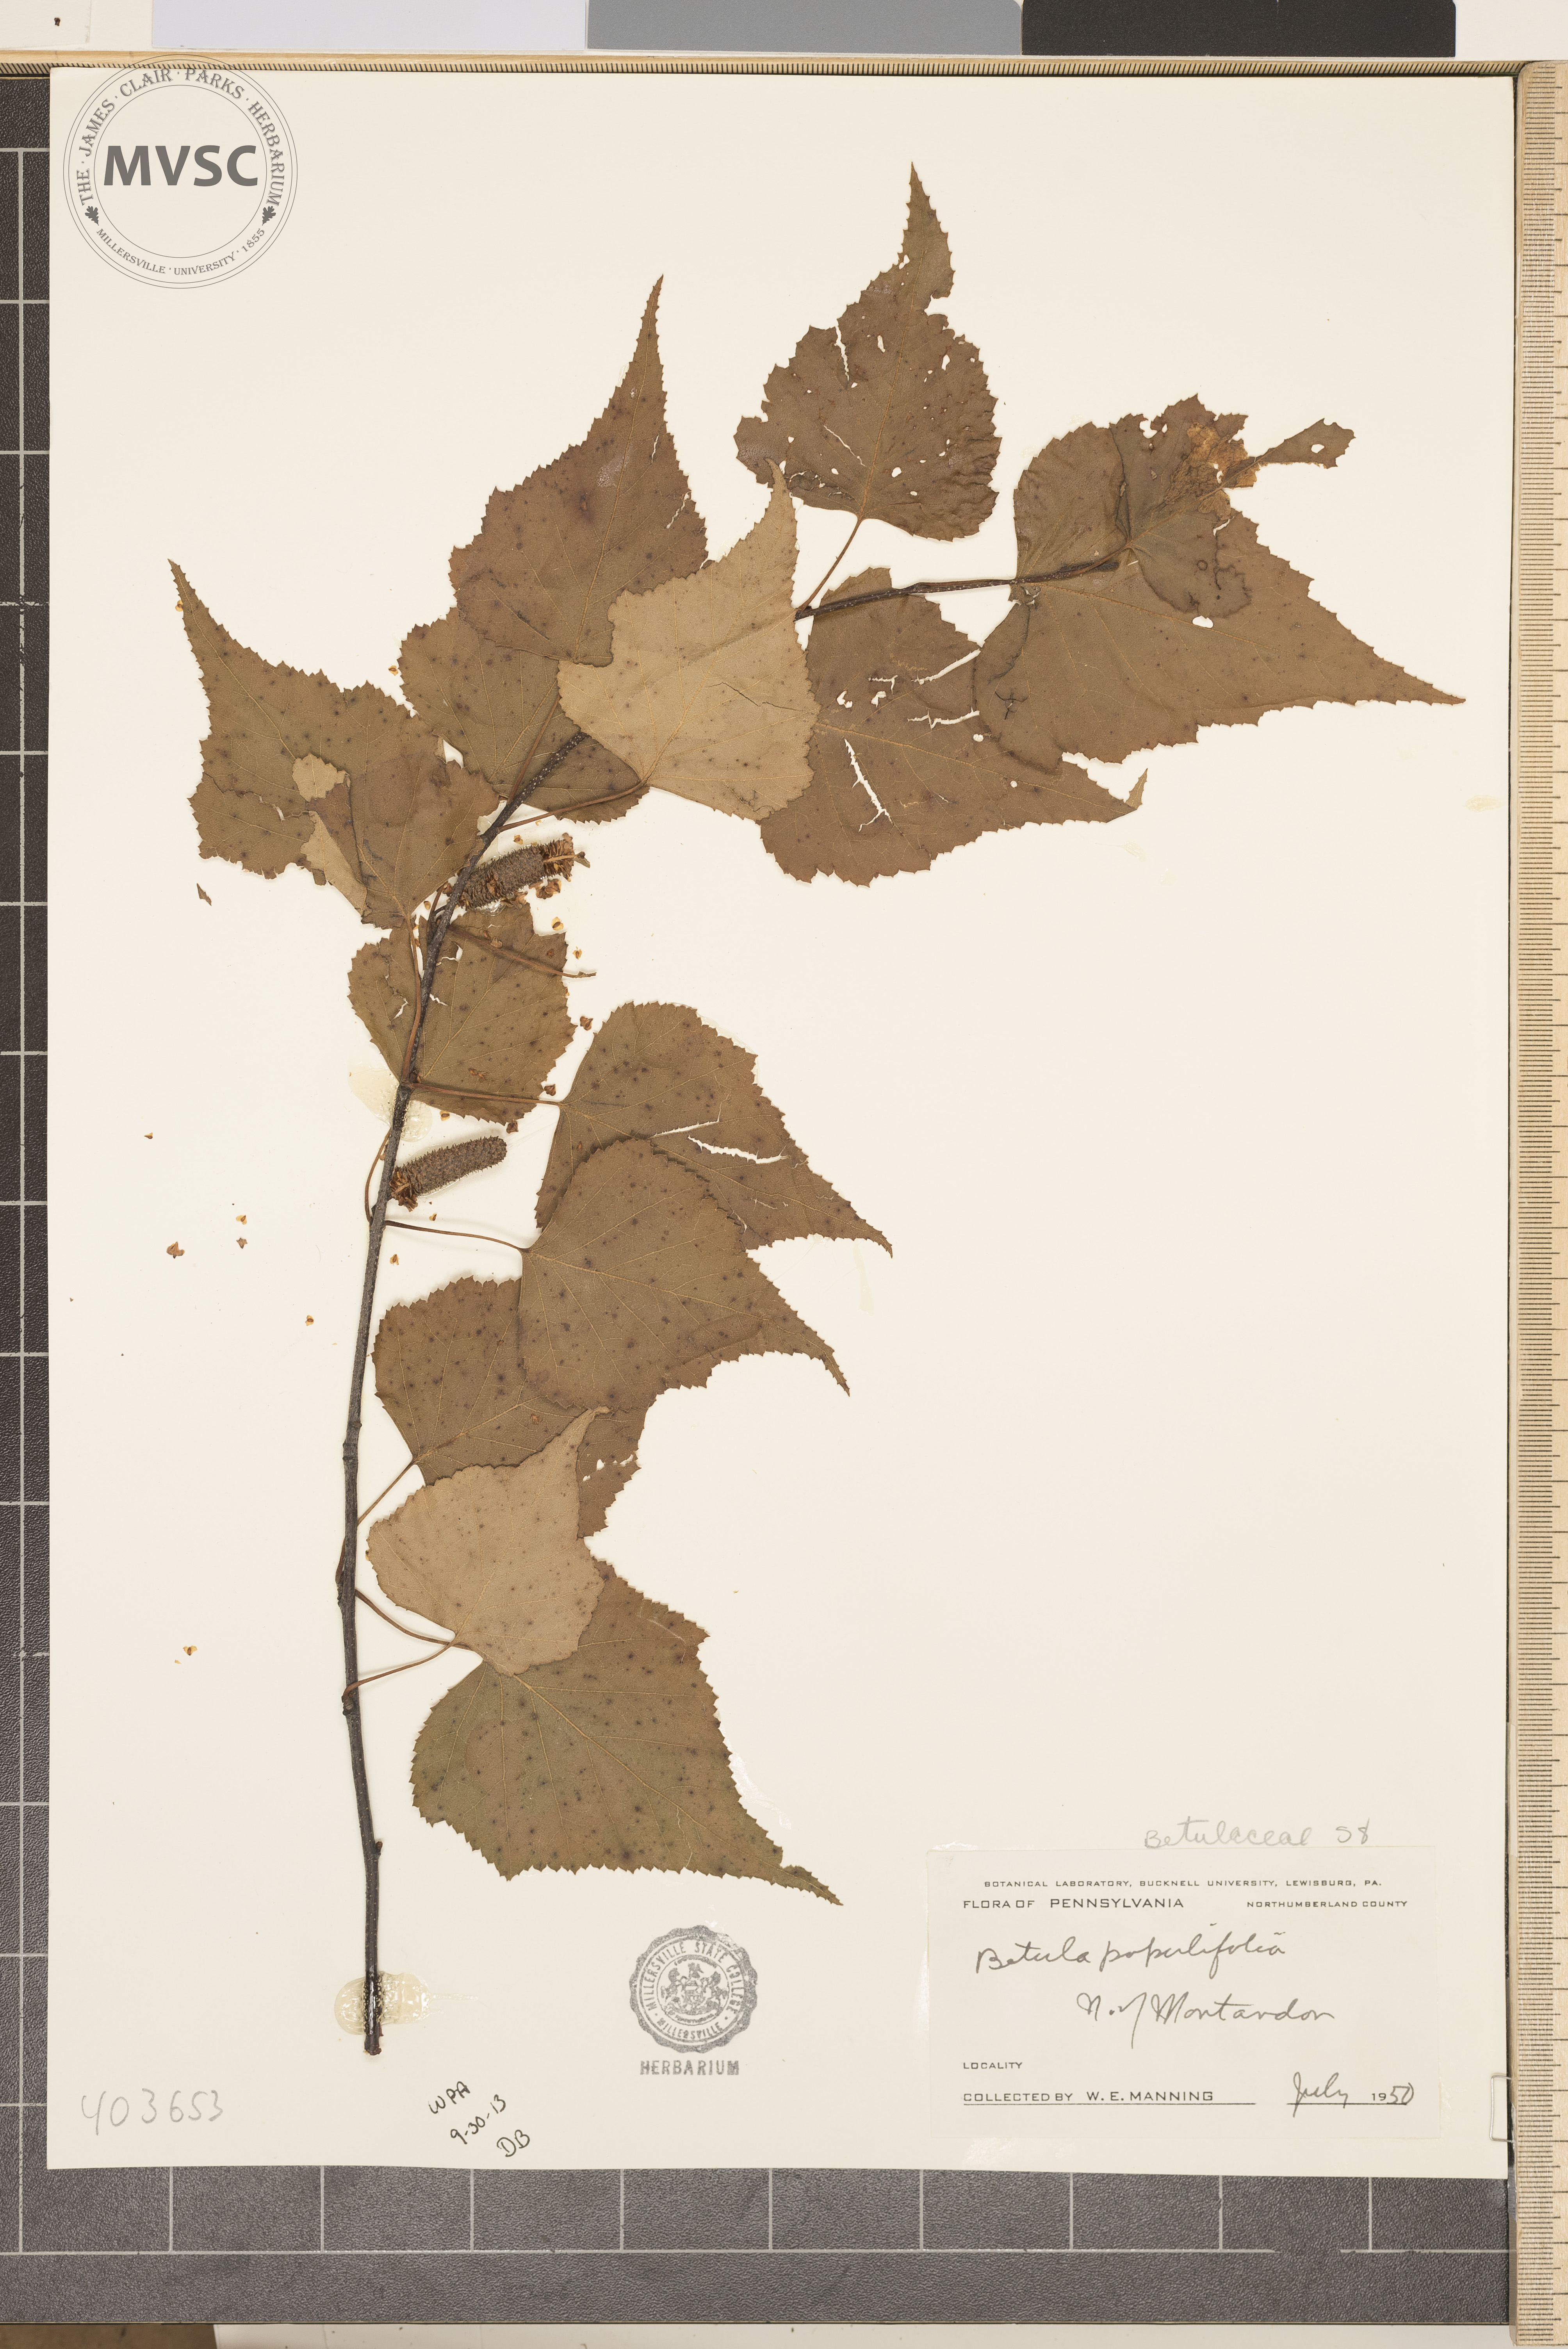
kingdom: Plantae
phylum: Tracheophyta
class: Magnoliopsida
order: Fagales
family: Betulaceae
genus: Betula
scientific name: Betula populifolia
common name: Gray Birch
